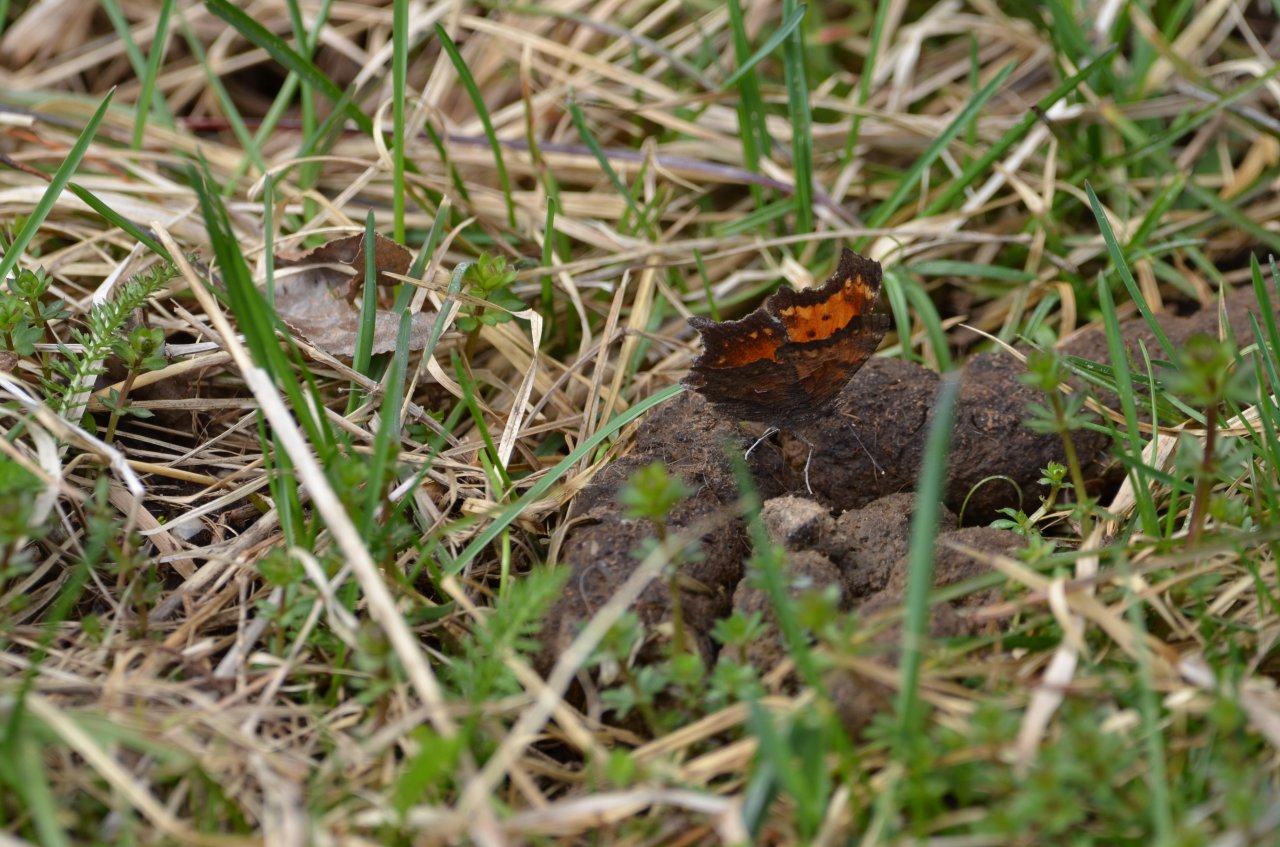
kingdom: Animalia
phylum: Arthropoda
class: Insecta
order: Lepidoptera
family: Nymphalidae
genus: Polygonia
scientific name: Polygonia progne
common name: Gray Comma
